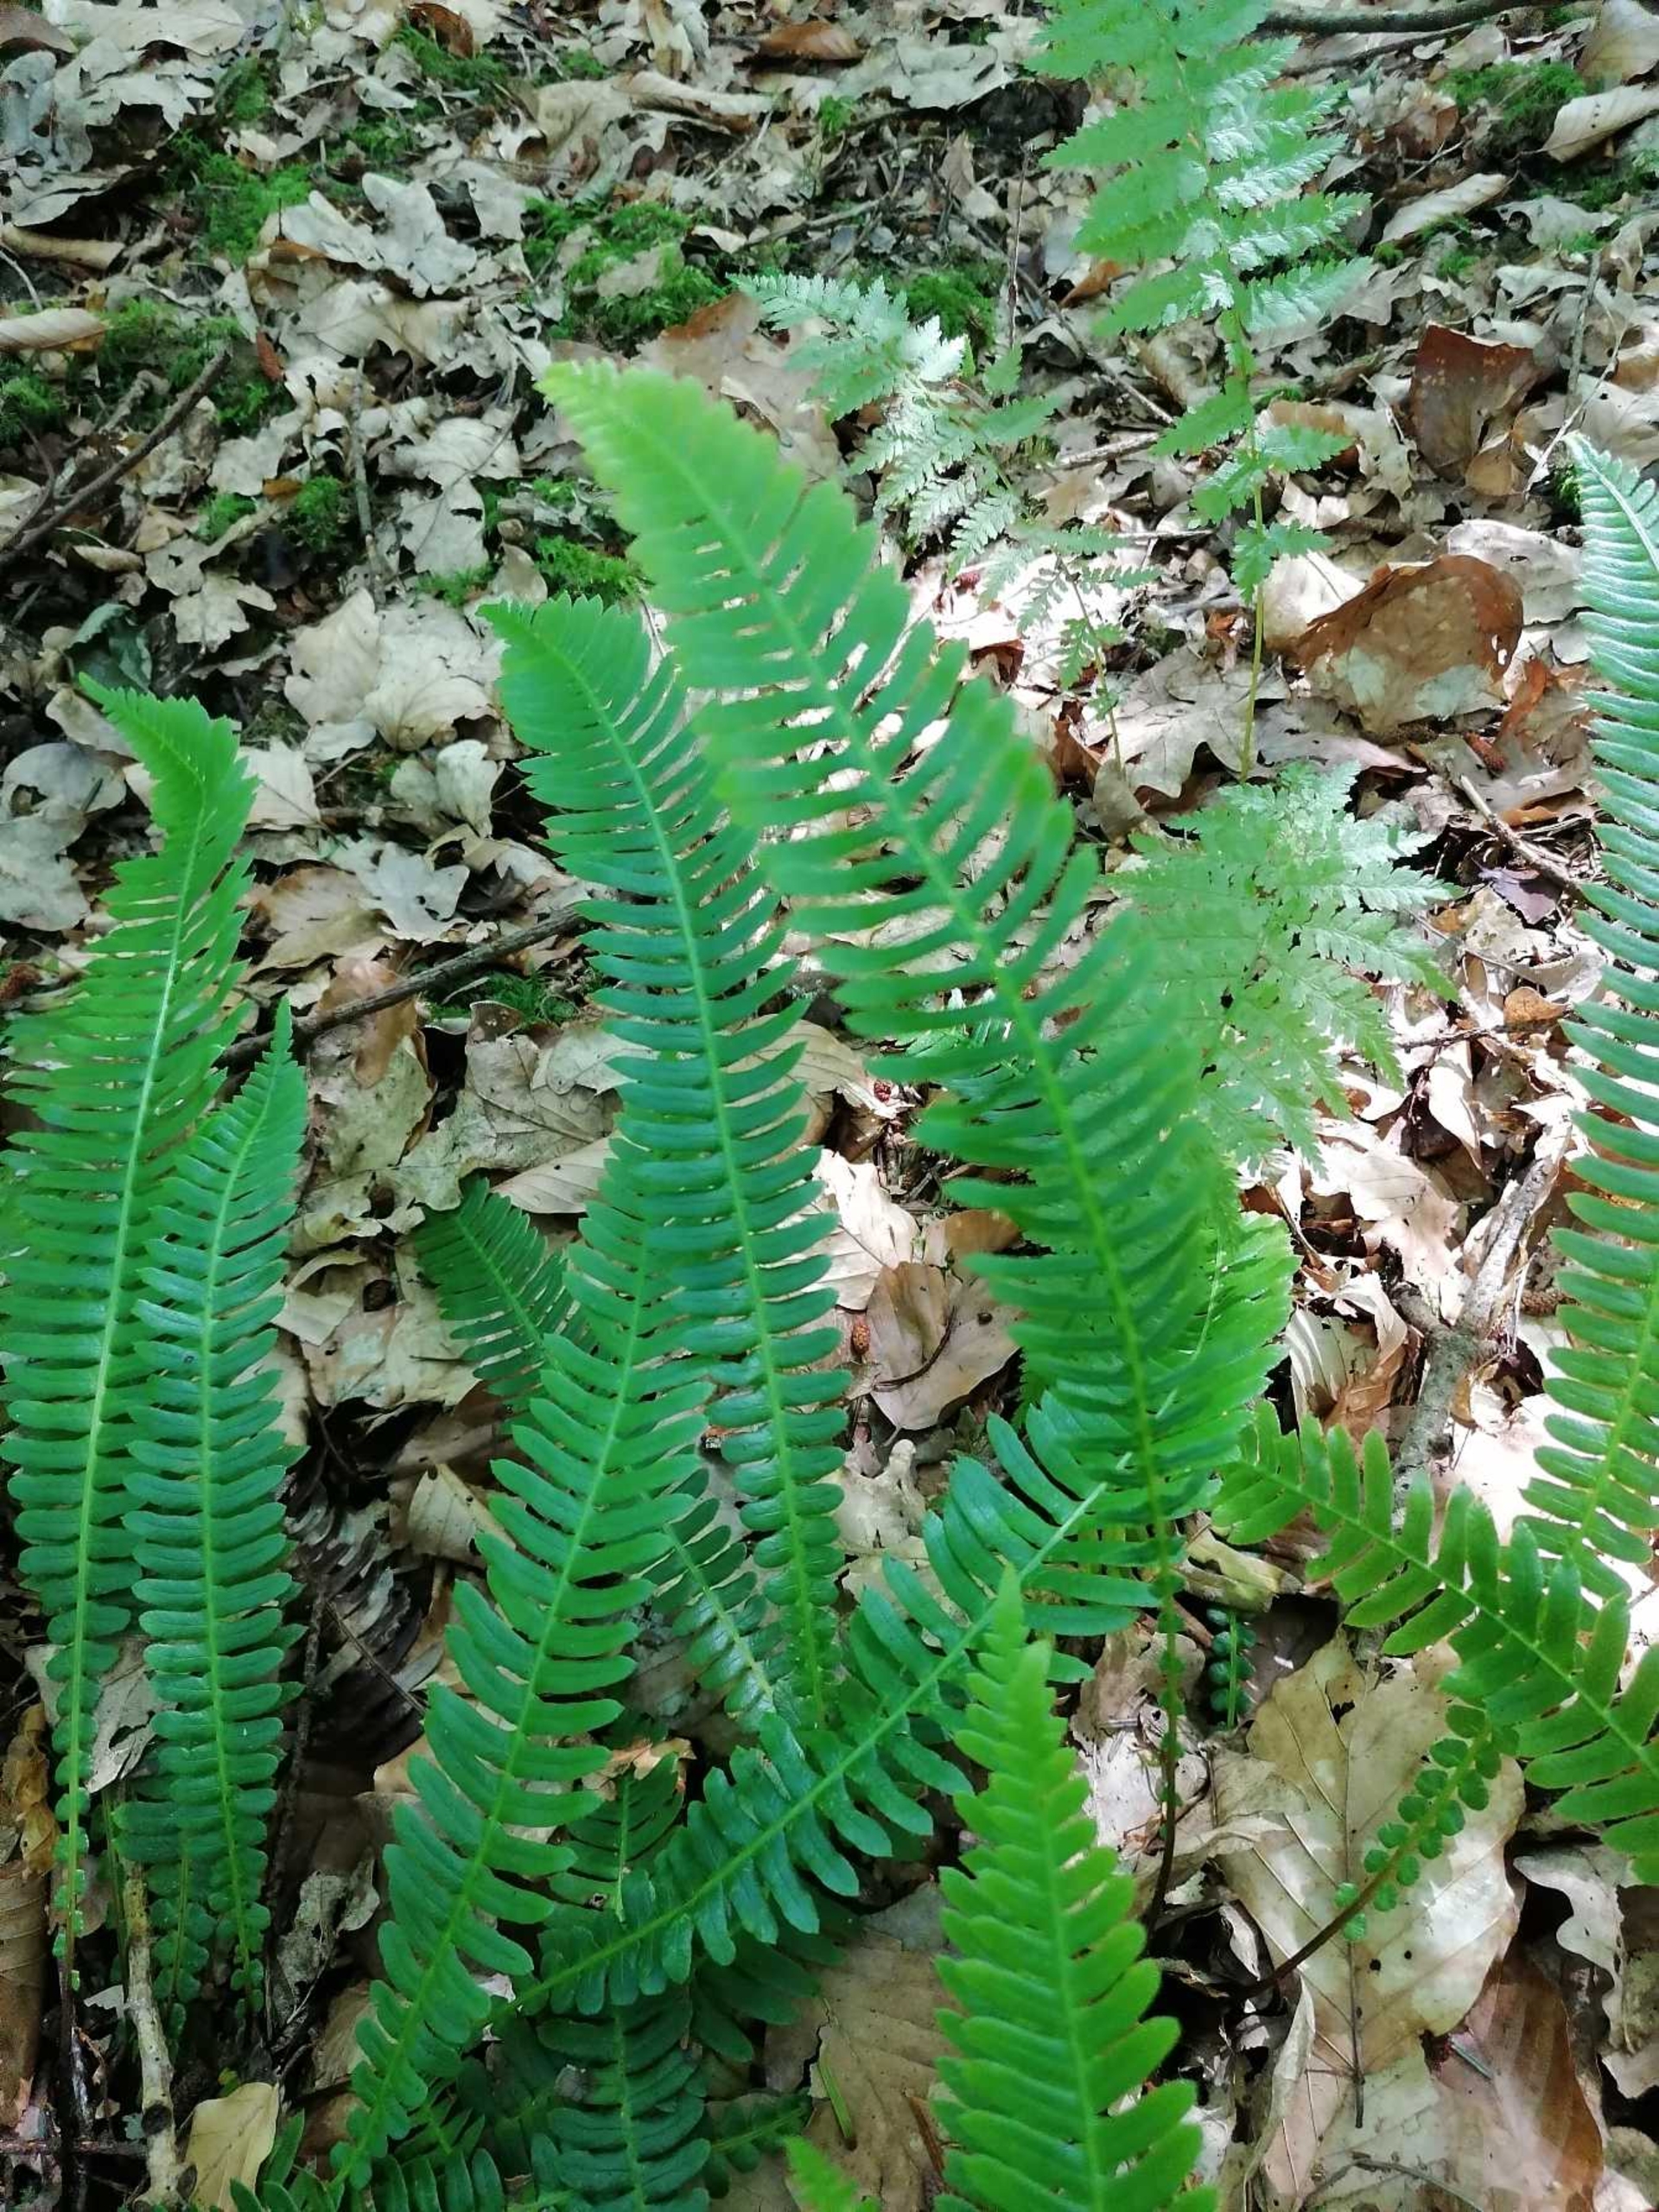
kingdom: Plantae
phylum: Tracheophyta
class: Polypodiopsida
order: Polypodiales
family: Blechnaceae
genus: Struthiopteris
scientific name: Struthiopteris spicant
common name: Kambregne
